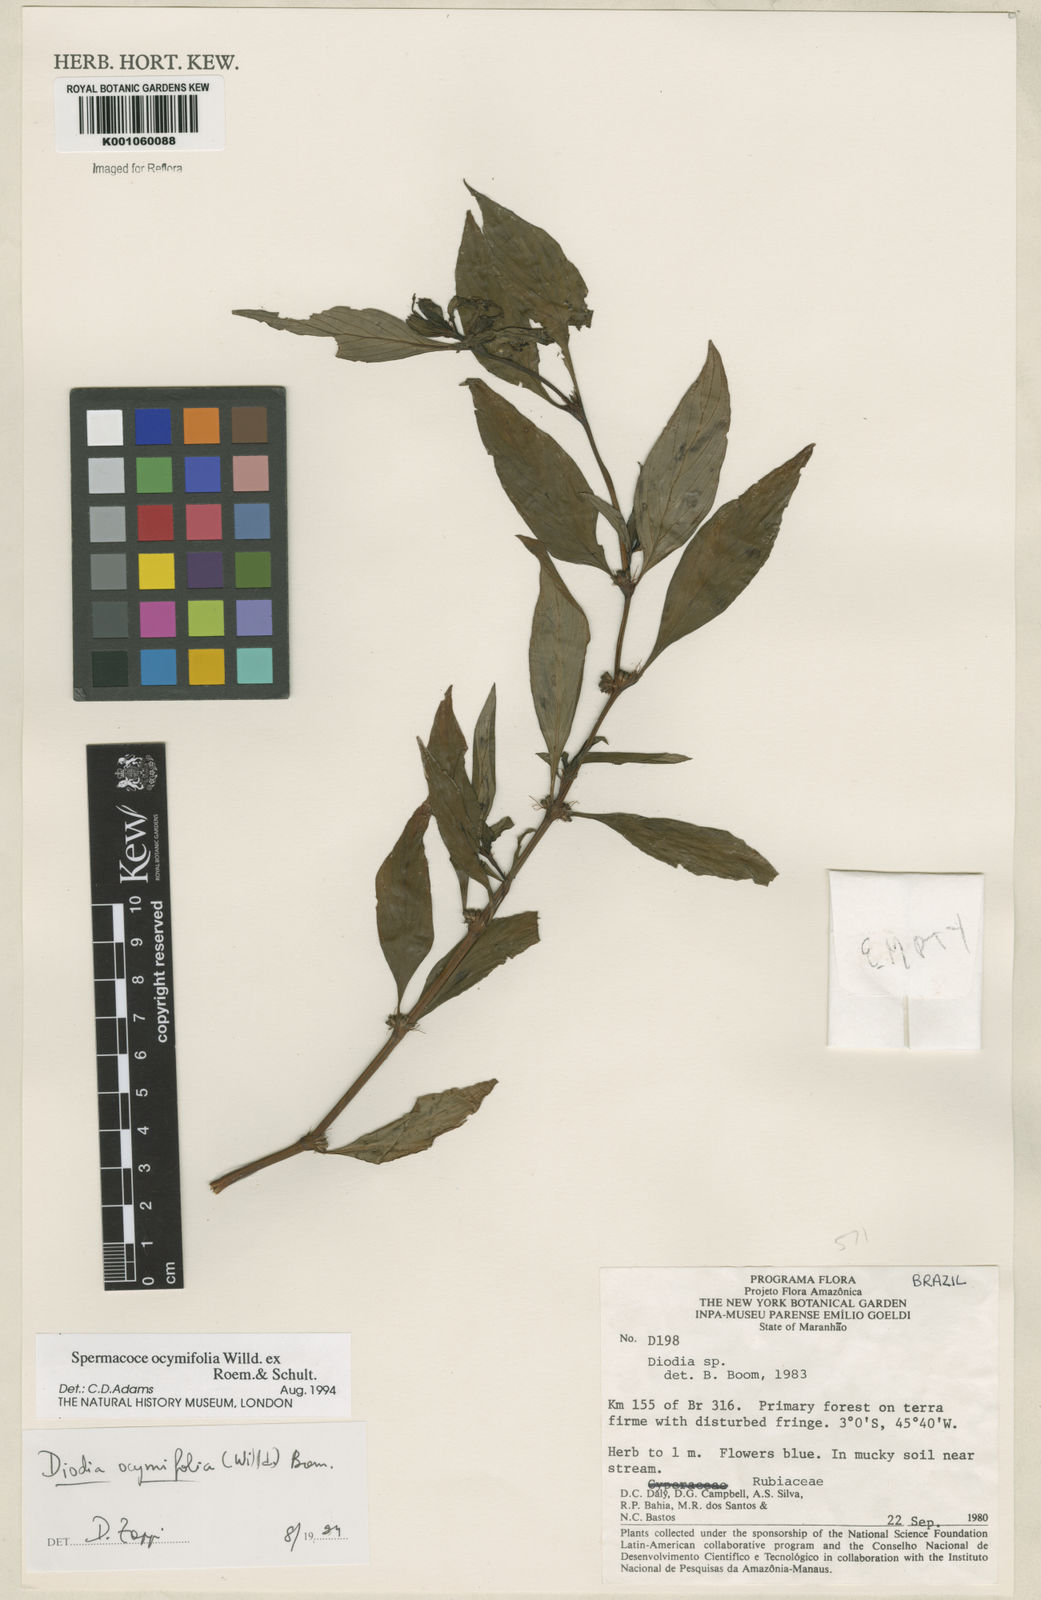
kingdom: Plantae
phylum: Tracheophyta
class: Magnoliopsida
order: Gentianales
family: Rubiaceae
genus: Spermacoce
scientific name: Spermacoce
